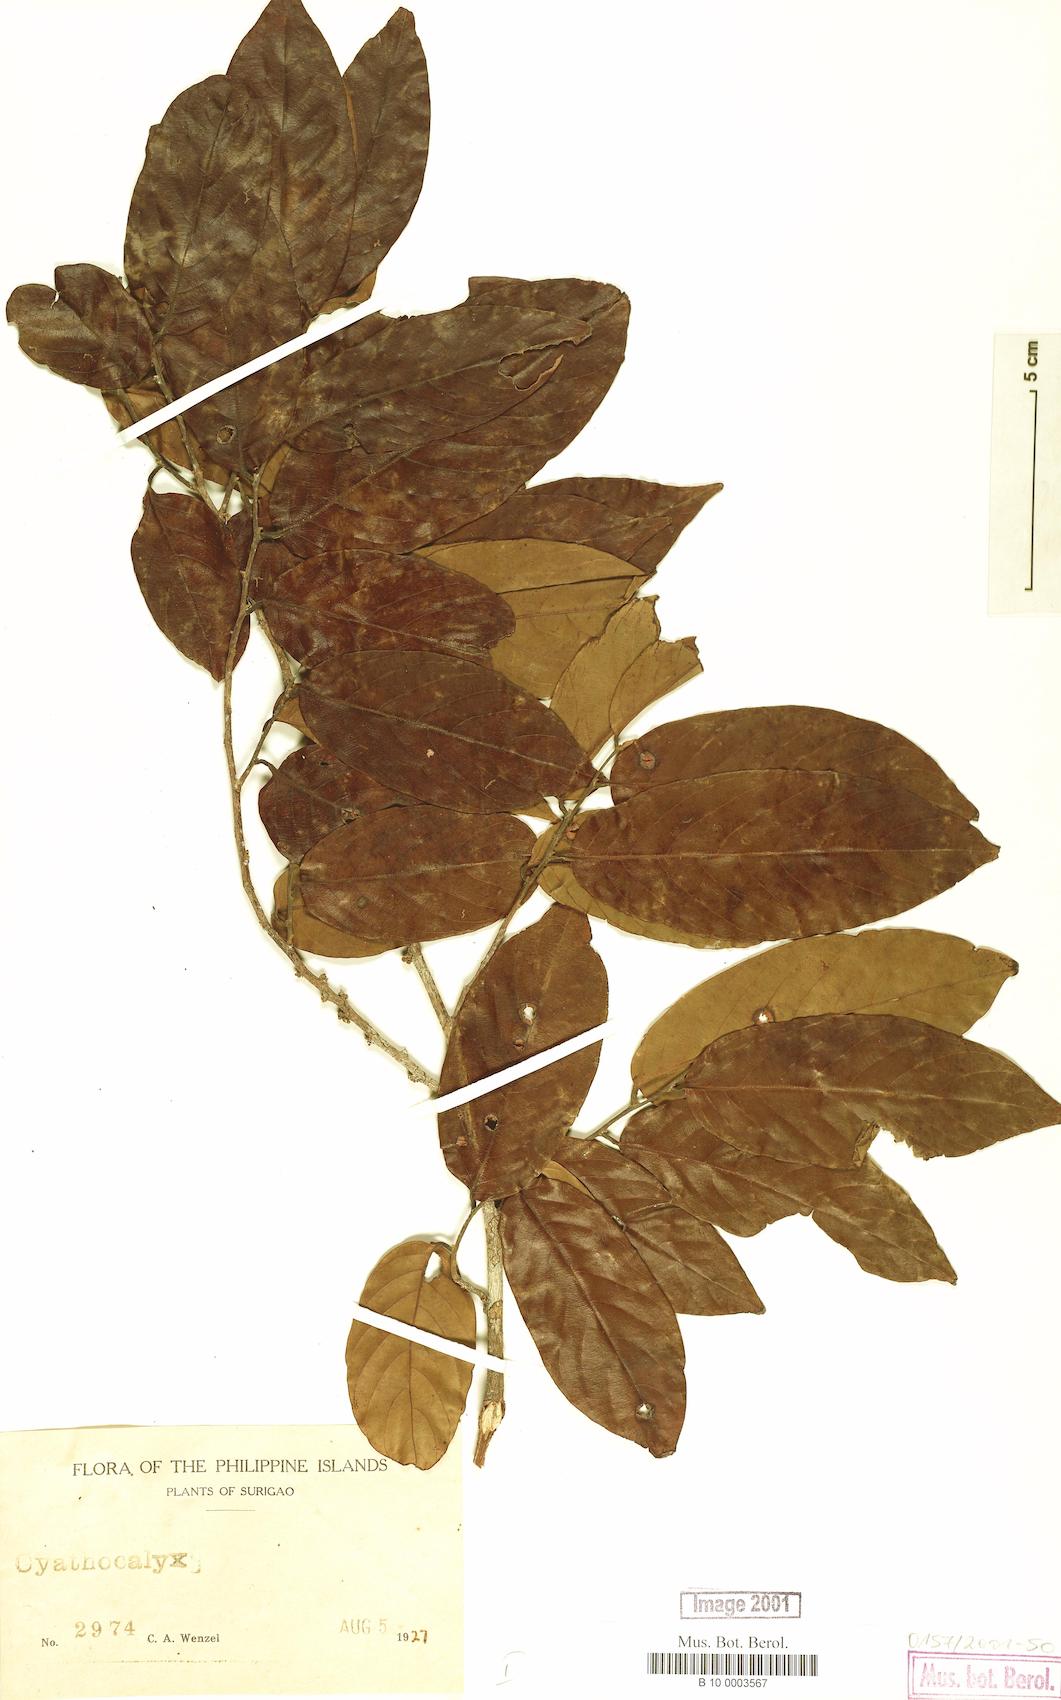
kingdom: Plantae
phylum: Tracheophyta
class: Magnoliopsida
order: Magnoliales
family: Annonaceae
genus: Cyathocalyx
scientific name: Cyathocalyx
